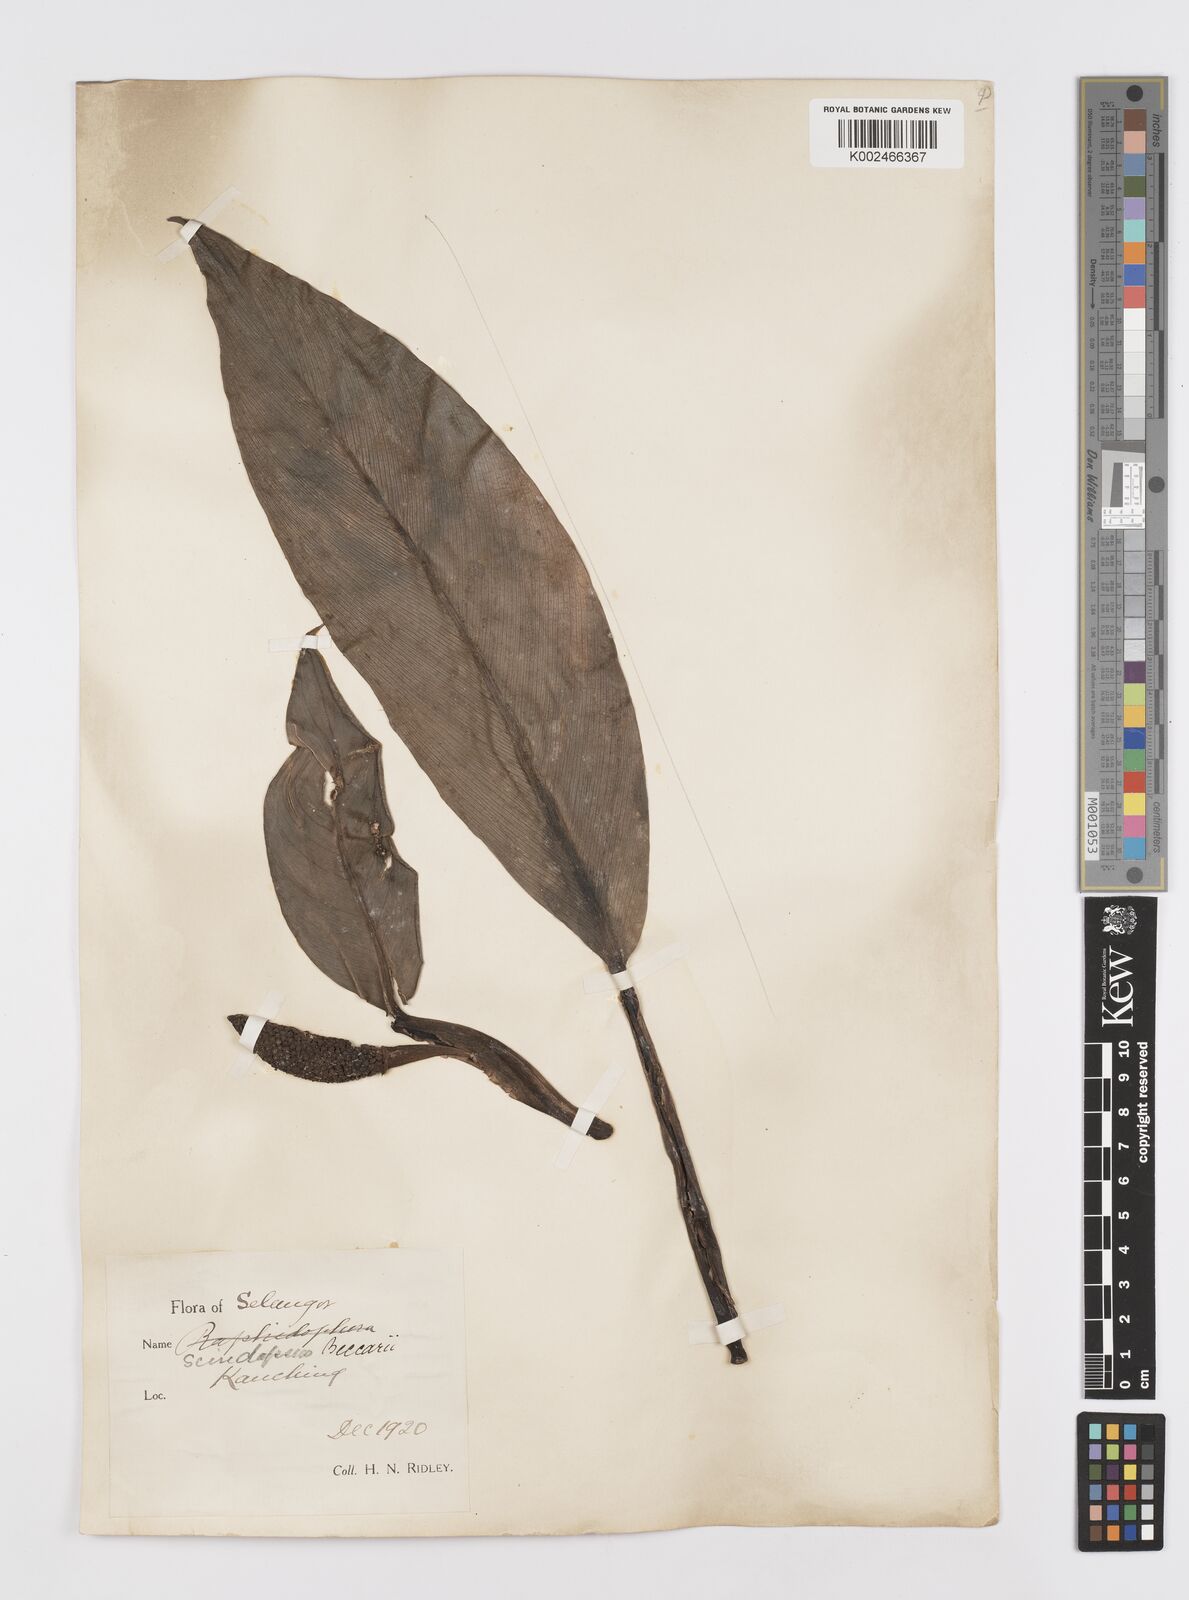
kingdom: Plantae
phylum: Tracheophyta
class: Liliopsida
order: Alismatales
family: Araceae
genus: Scindapsus
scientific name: Scindapsus beccarii
